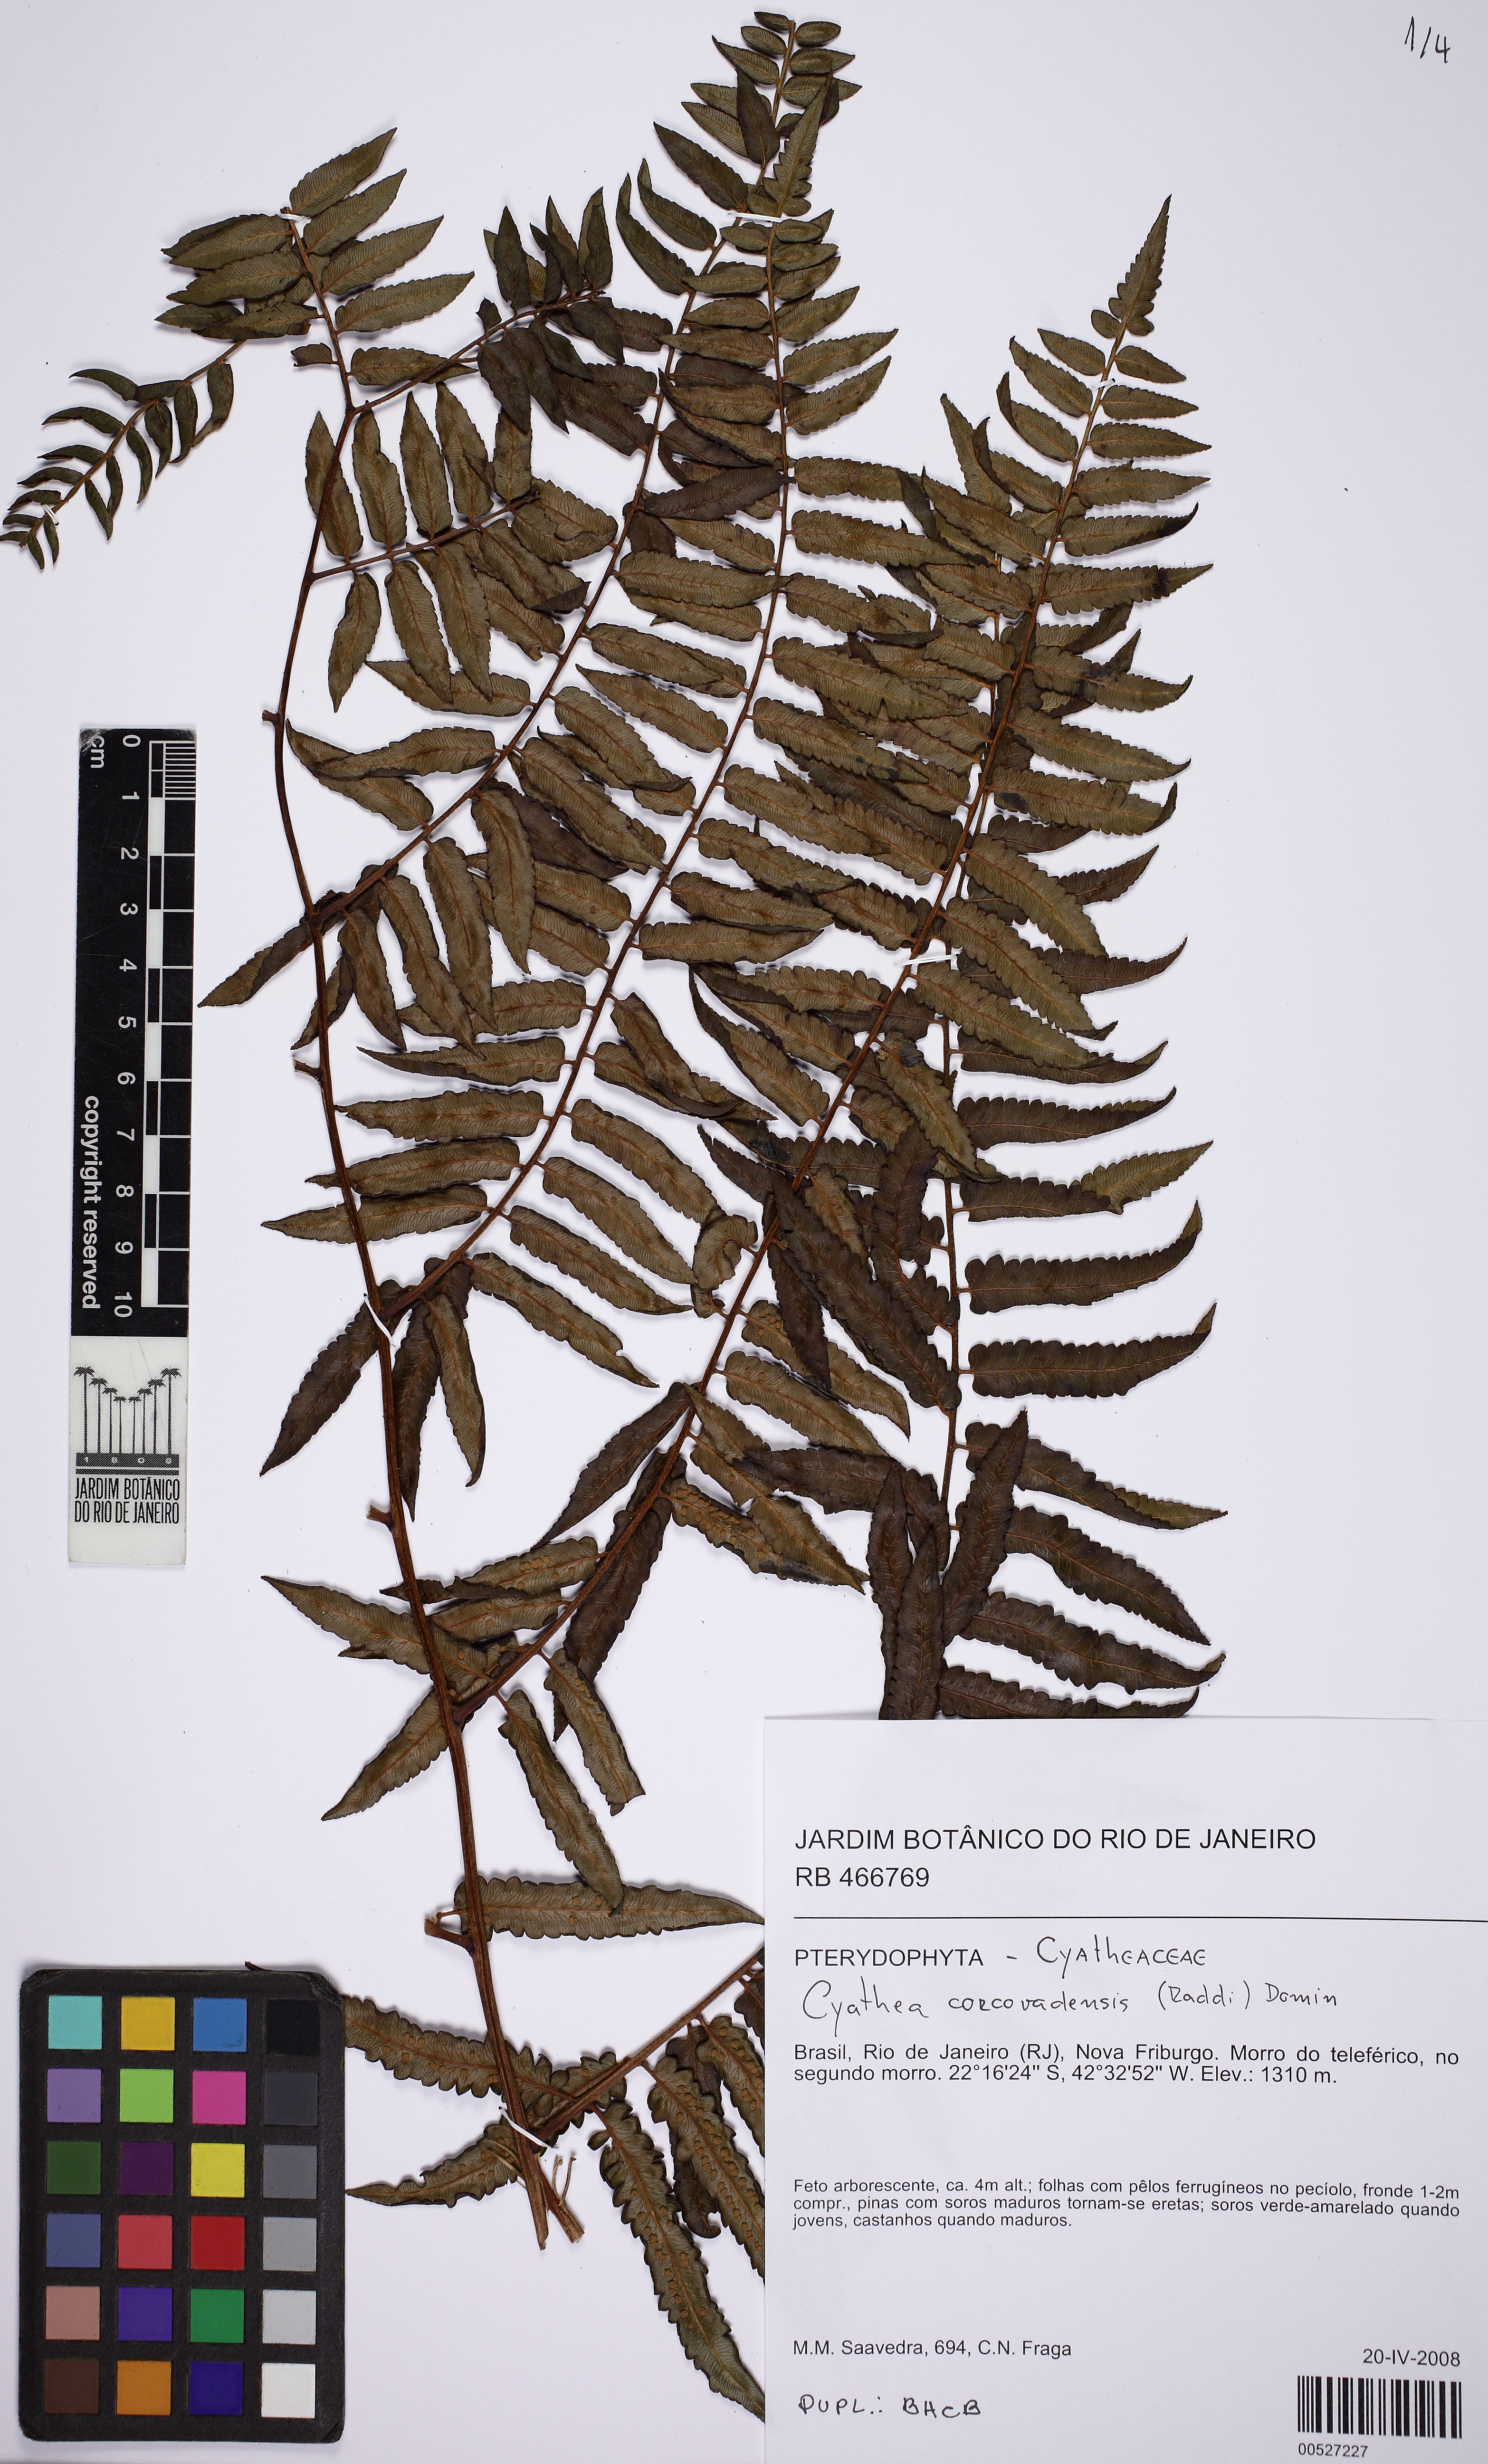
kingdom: Plantae
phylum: Tracheophyta
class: Polypodiopsida
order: Cyatheales
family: Cyatheaceae
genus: Cyathea
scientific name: Cyathea feeana
